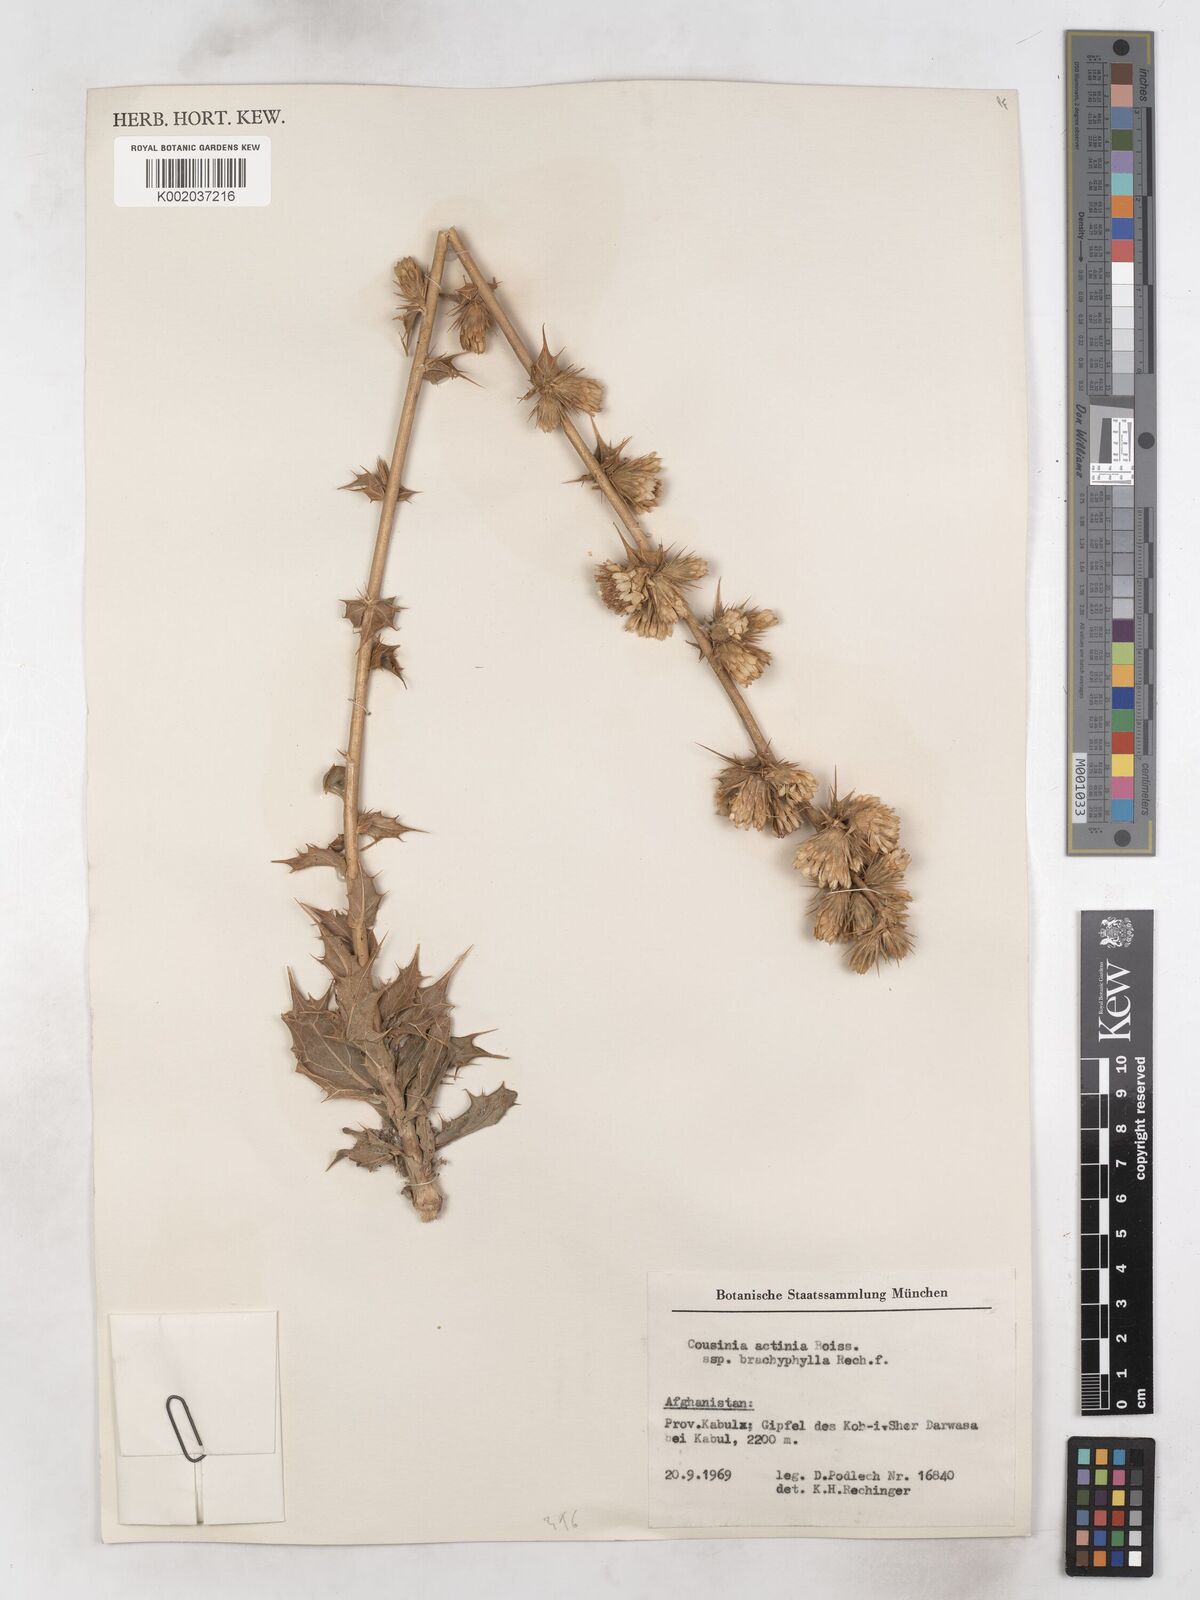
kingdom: Plantae
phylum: Tracheophyta
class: Magnoliopsida
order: Asterales
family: Asteraceae
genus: Cousinia
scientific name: Cousinia actinia
